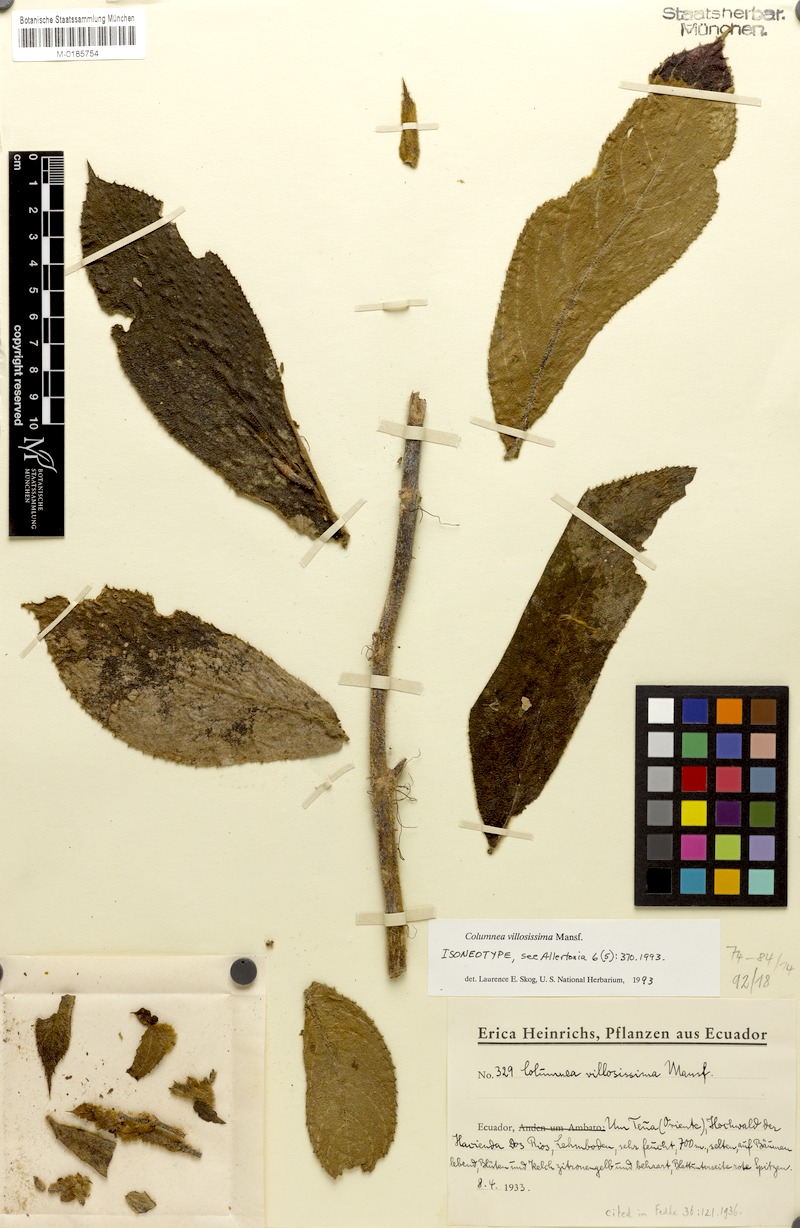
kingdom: Plantae
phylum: Tracheophyta
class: Magnoliopsida
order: Lamiales
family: Gesneriaceae
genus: Columnea
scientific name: Columnea villosissima
